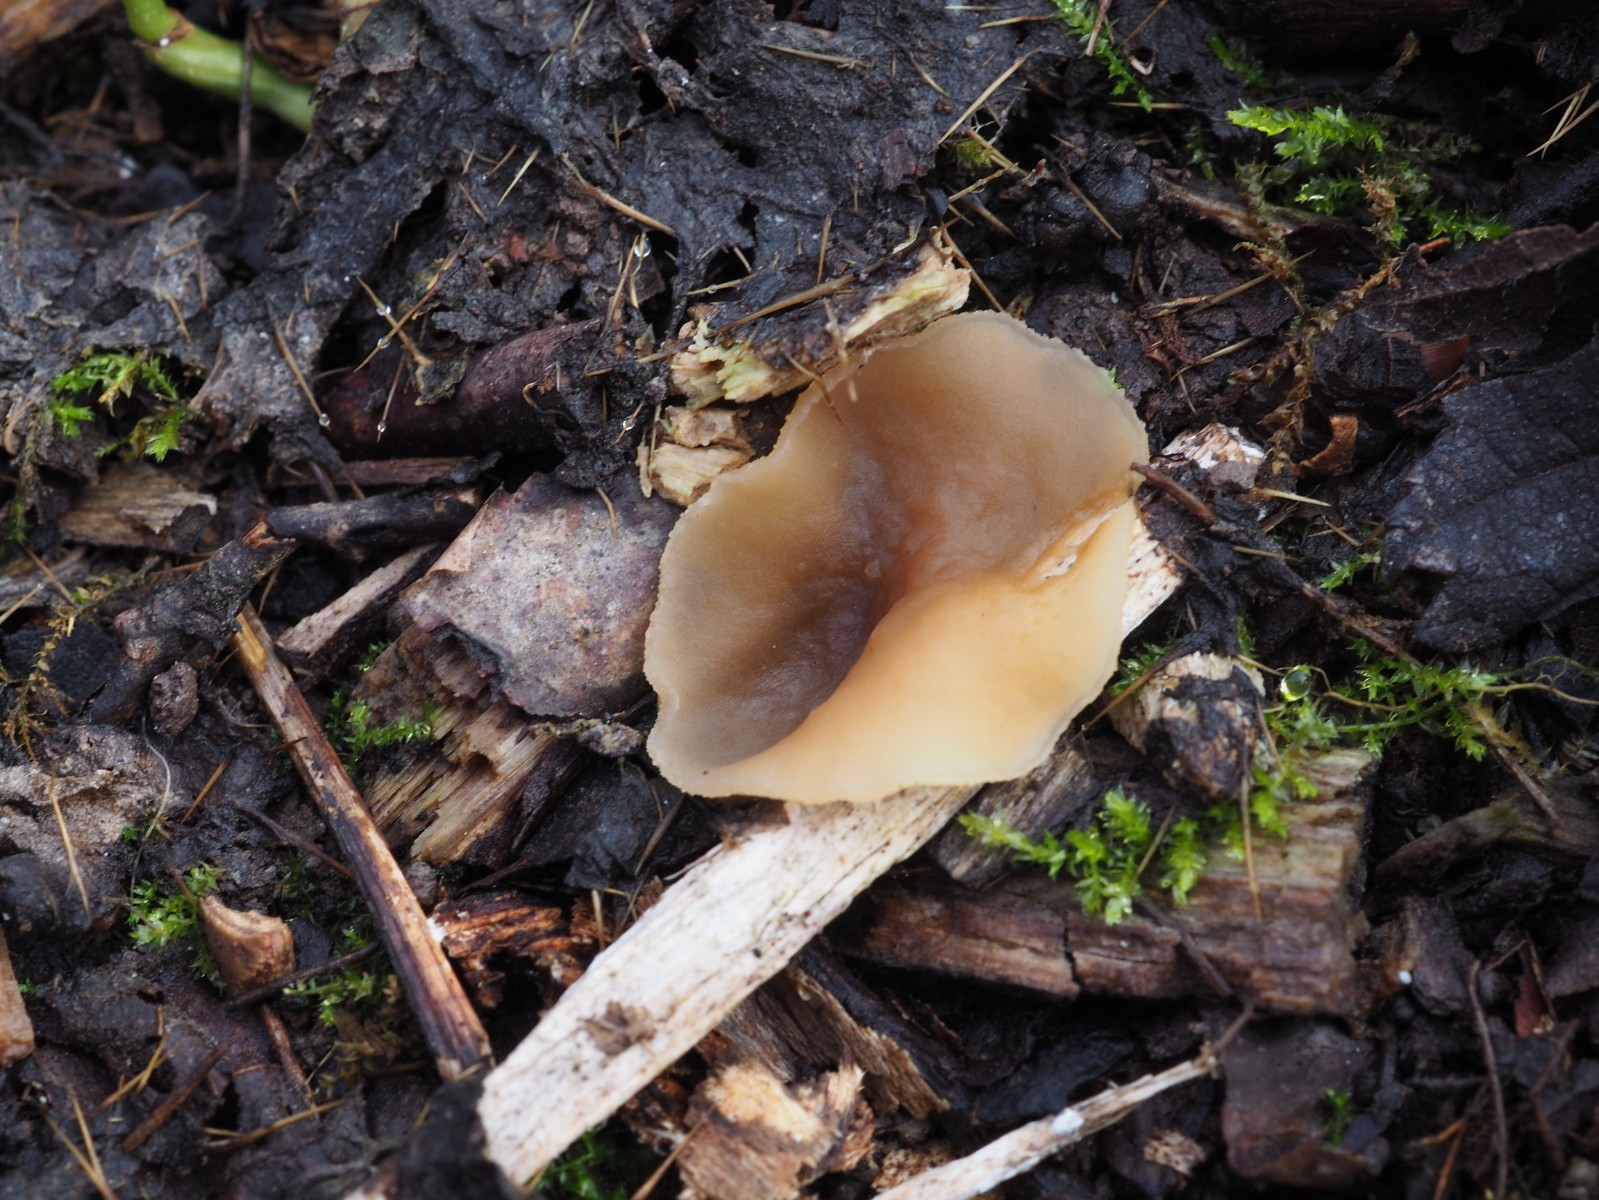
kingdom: Fungi
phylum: Ascomycota
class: Pezizomycetes
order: Pezizales
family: Pezizaceae
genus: Peziza
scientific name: Peziza varia
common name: Ved-bægersvamp
